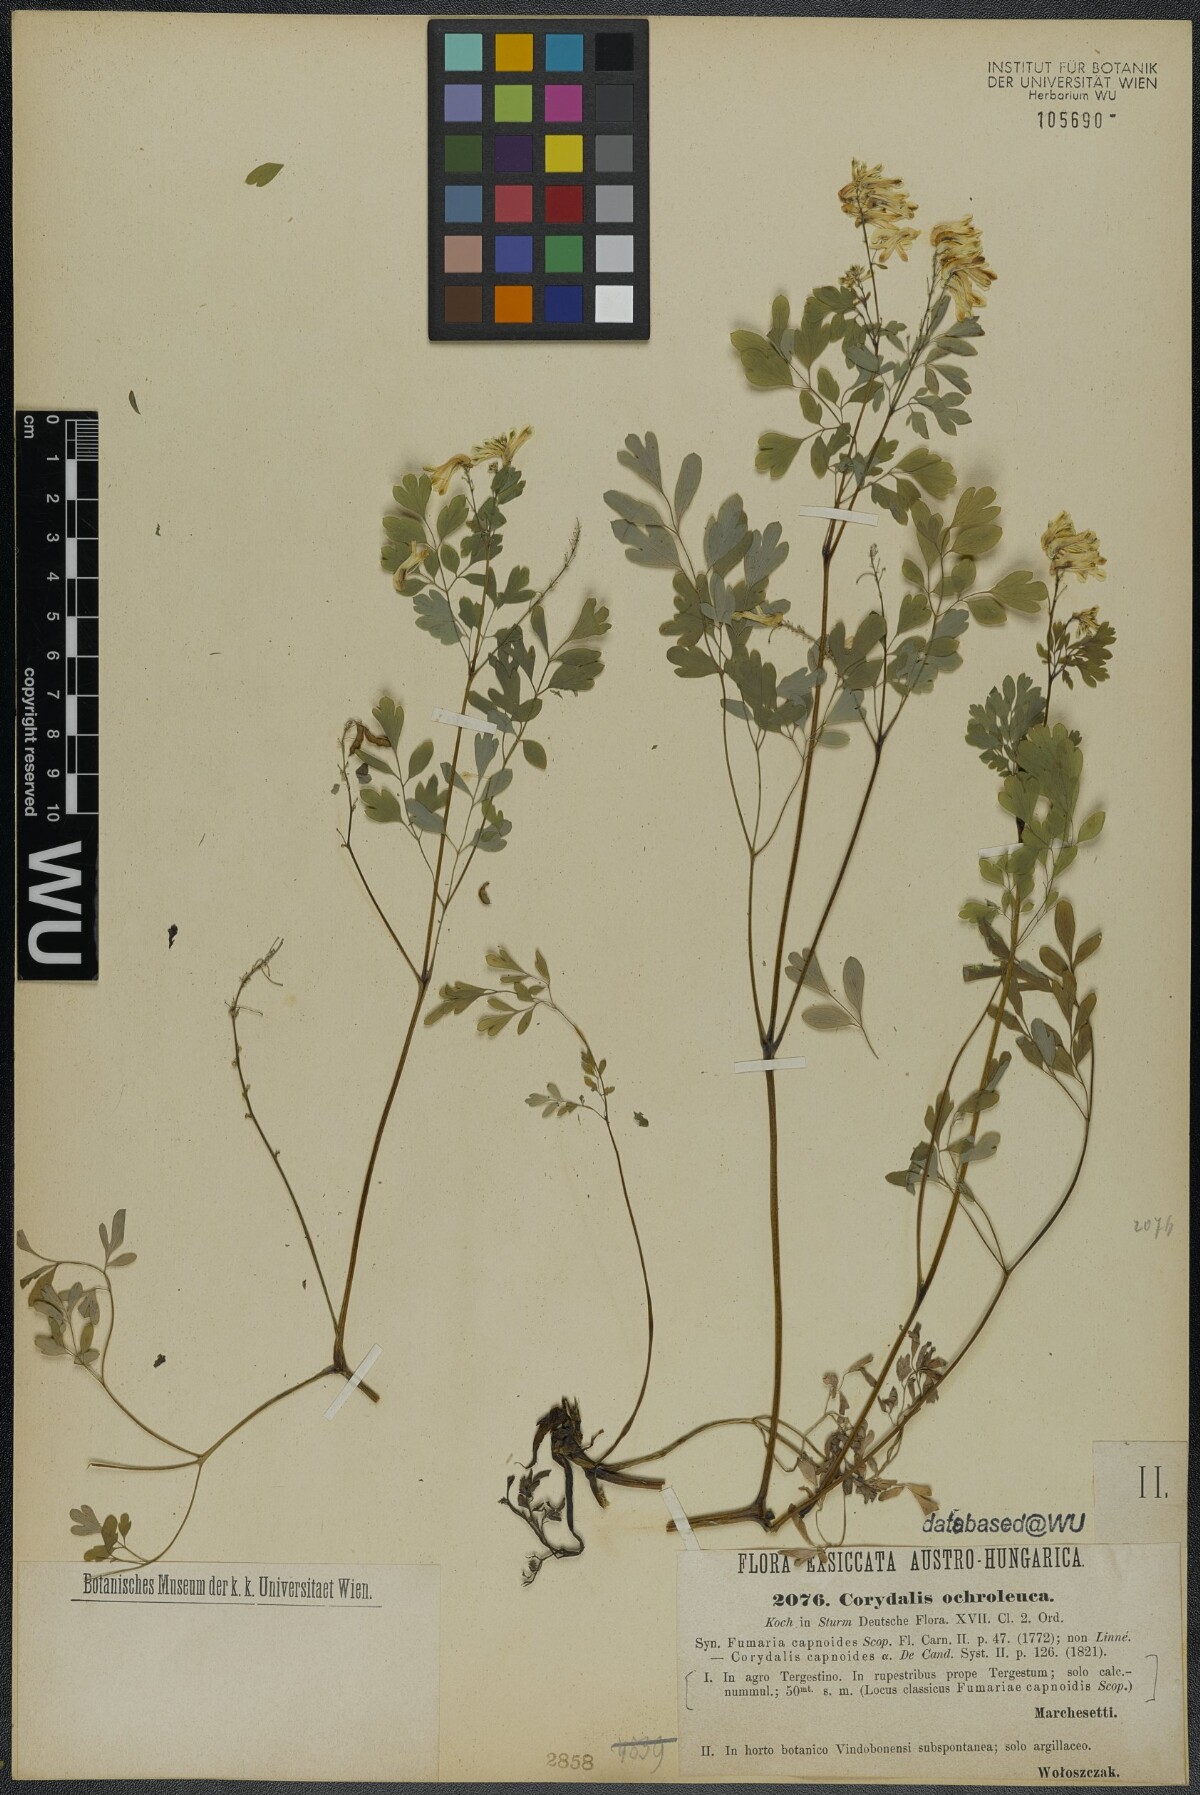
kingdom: Plantae
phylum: Tracheophyta
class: Magnoliopsida
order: Ranunculales
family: Papaveraceae
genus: Pseudofumaria
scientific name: Pseudofumaria alba
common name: Pale corydalis
